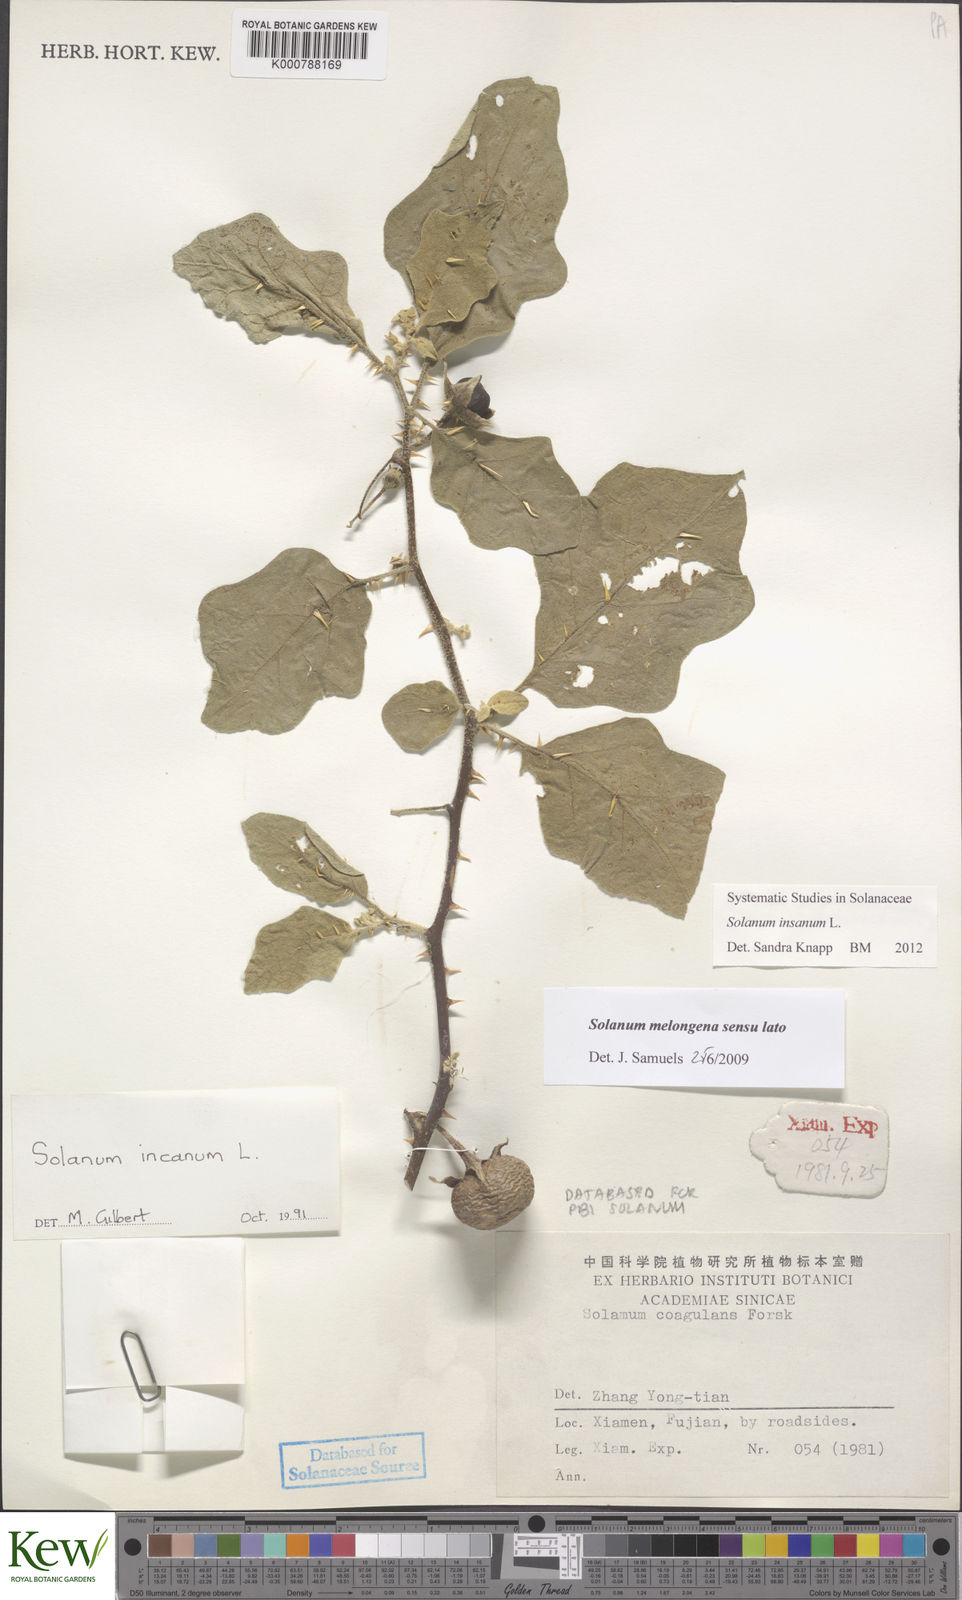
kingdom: Plantae
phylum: Tracheophyta
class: Magnoliopsida
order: Solanales
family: Solanaceae
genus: Solanum
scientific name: Solanum insanum
